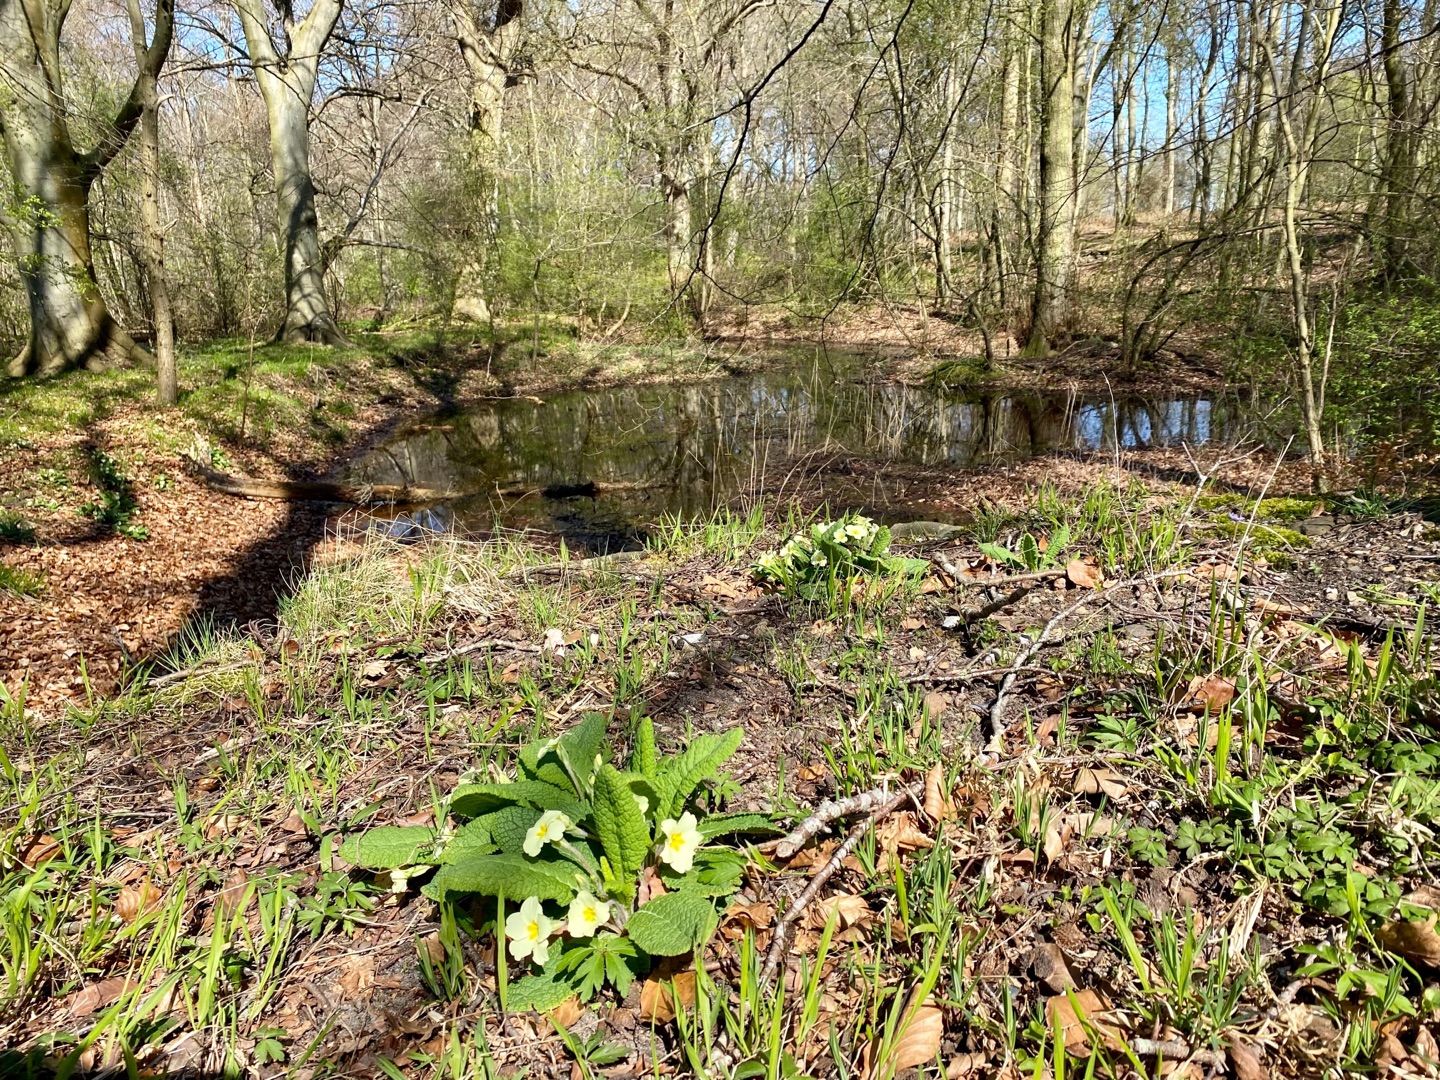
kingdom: Plantae
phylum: Tracheophyta
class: Magnoliopsida
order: Ericales
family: Primulaceae
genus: Primula
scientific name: Primula vulgaris
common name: Storblomstret kodriver
